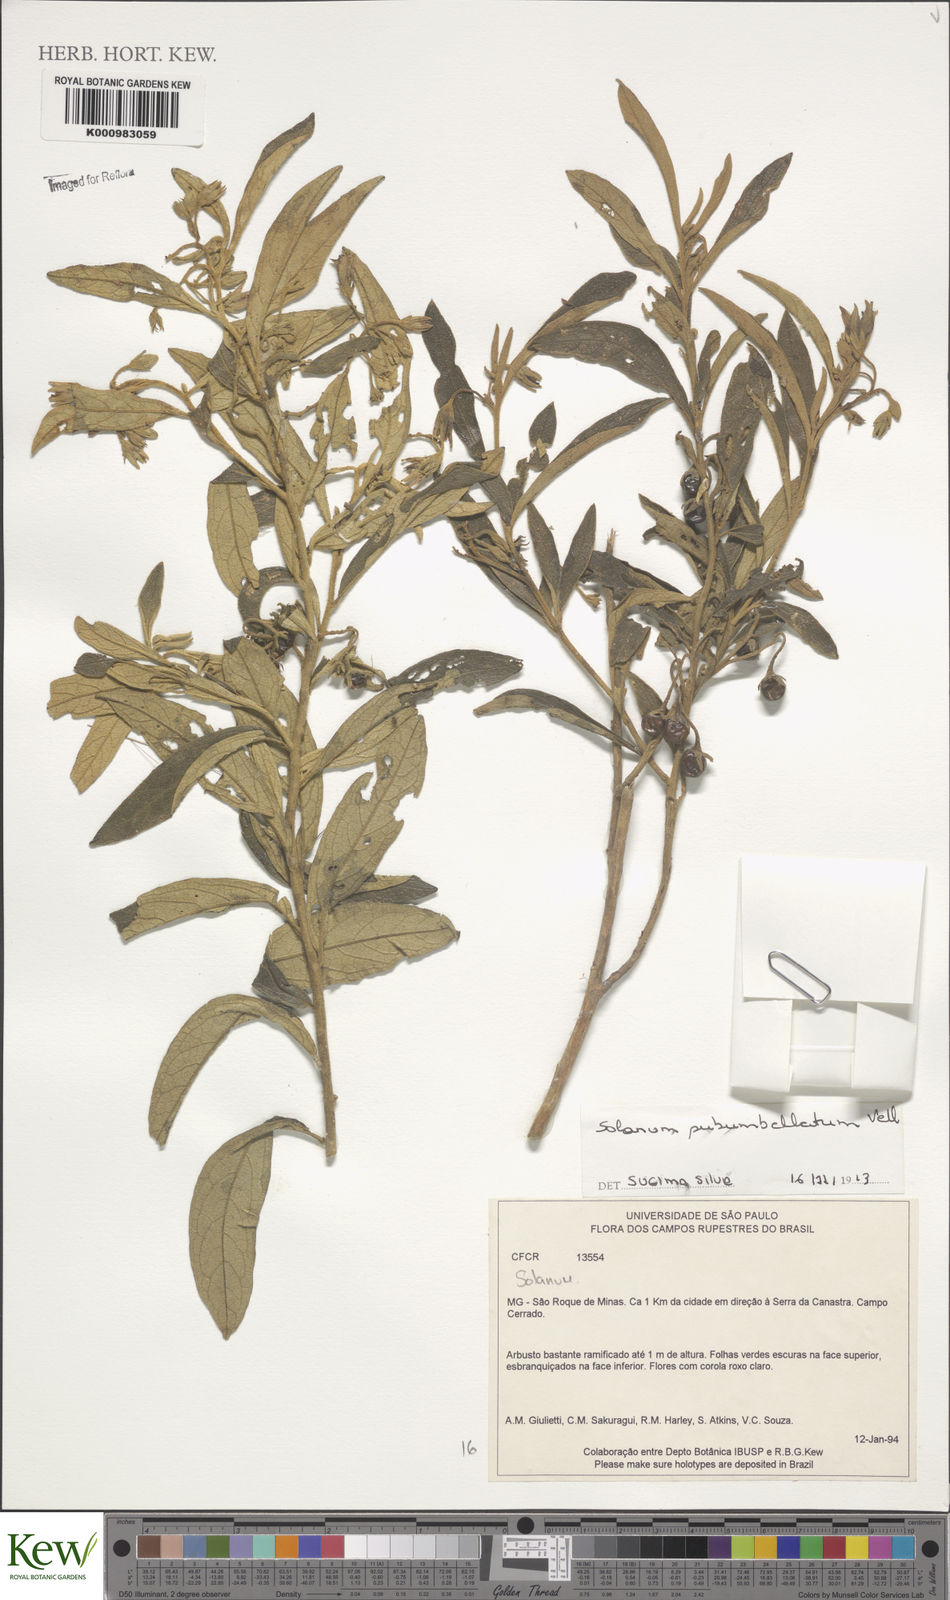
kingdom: Plantae
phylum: Tracheophyta
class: Magnoliopsida
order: Solanales
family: Solanaceae
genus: Solanum
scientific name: Solanum subumbellatum
